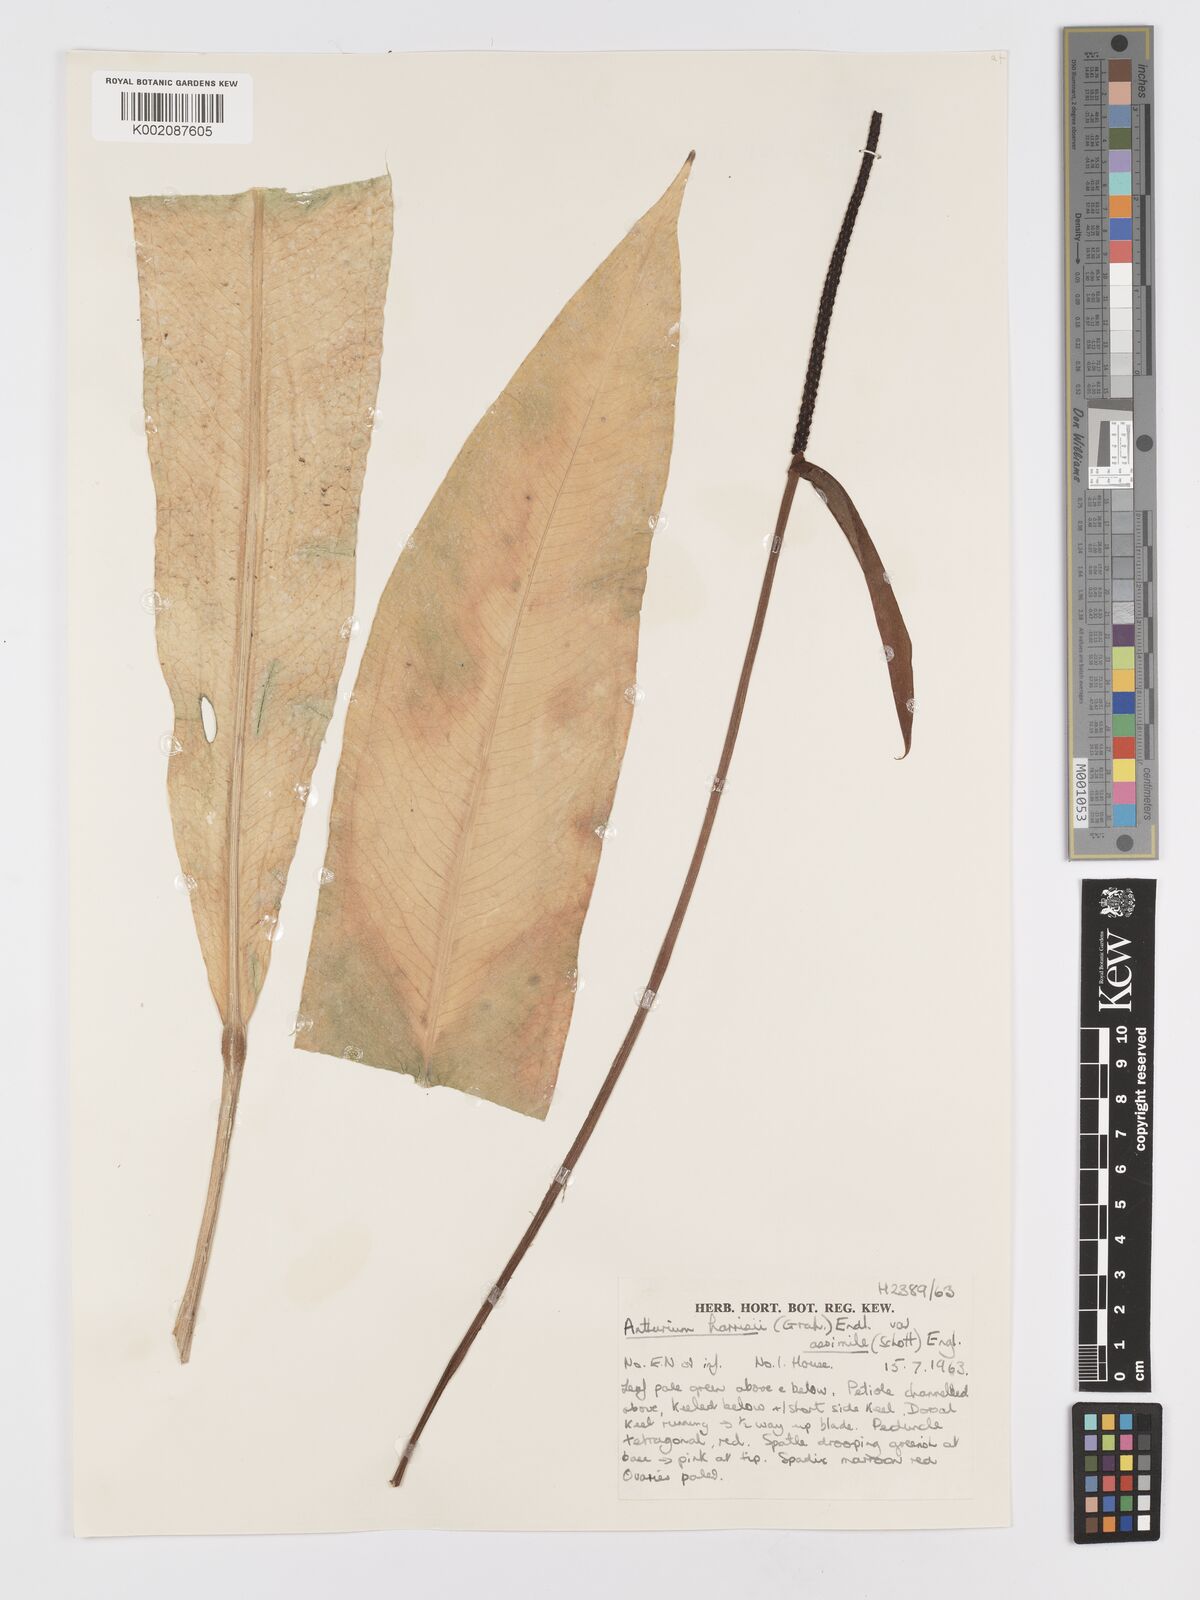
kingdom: Plantae
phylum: Tracheophyta
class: Liliopsida
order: Alismatales
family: Araceae
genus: Anthurium
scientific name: Anthurium harrisii
